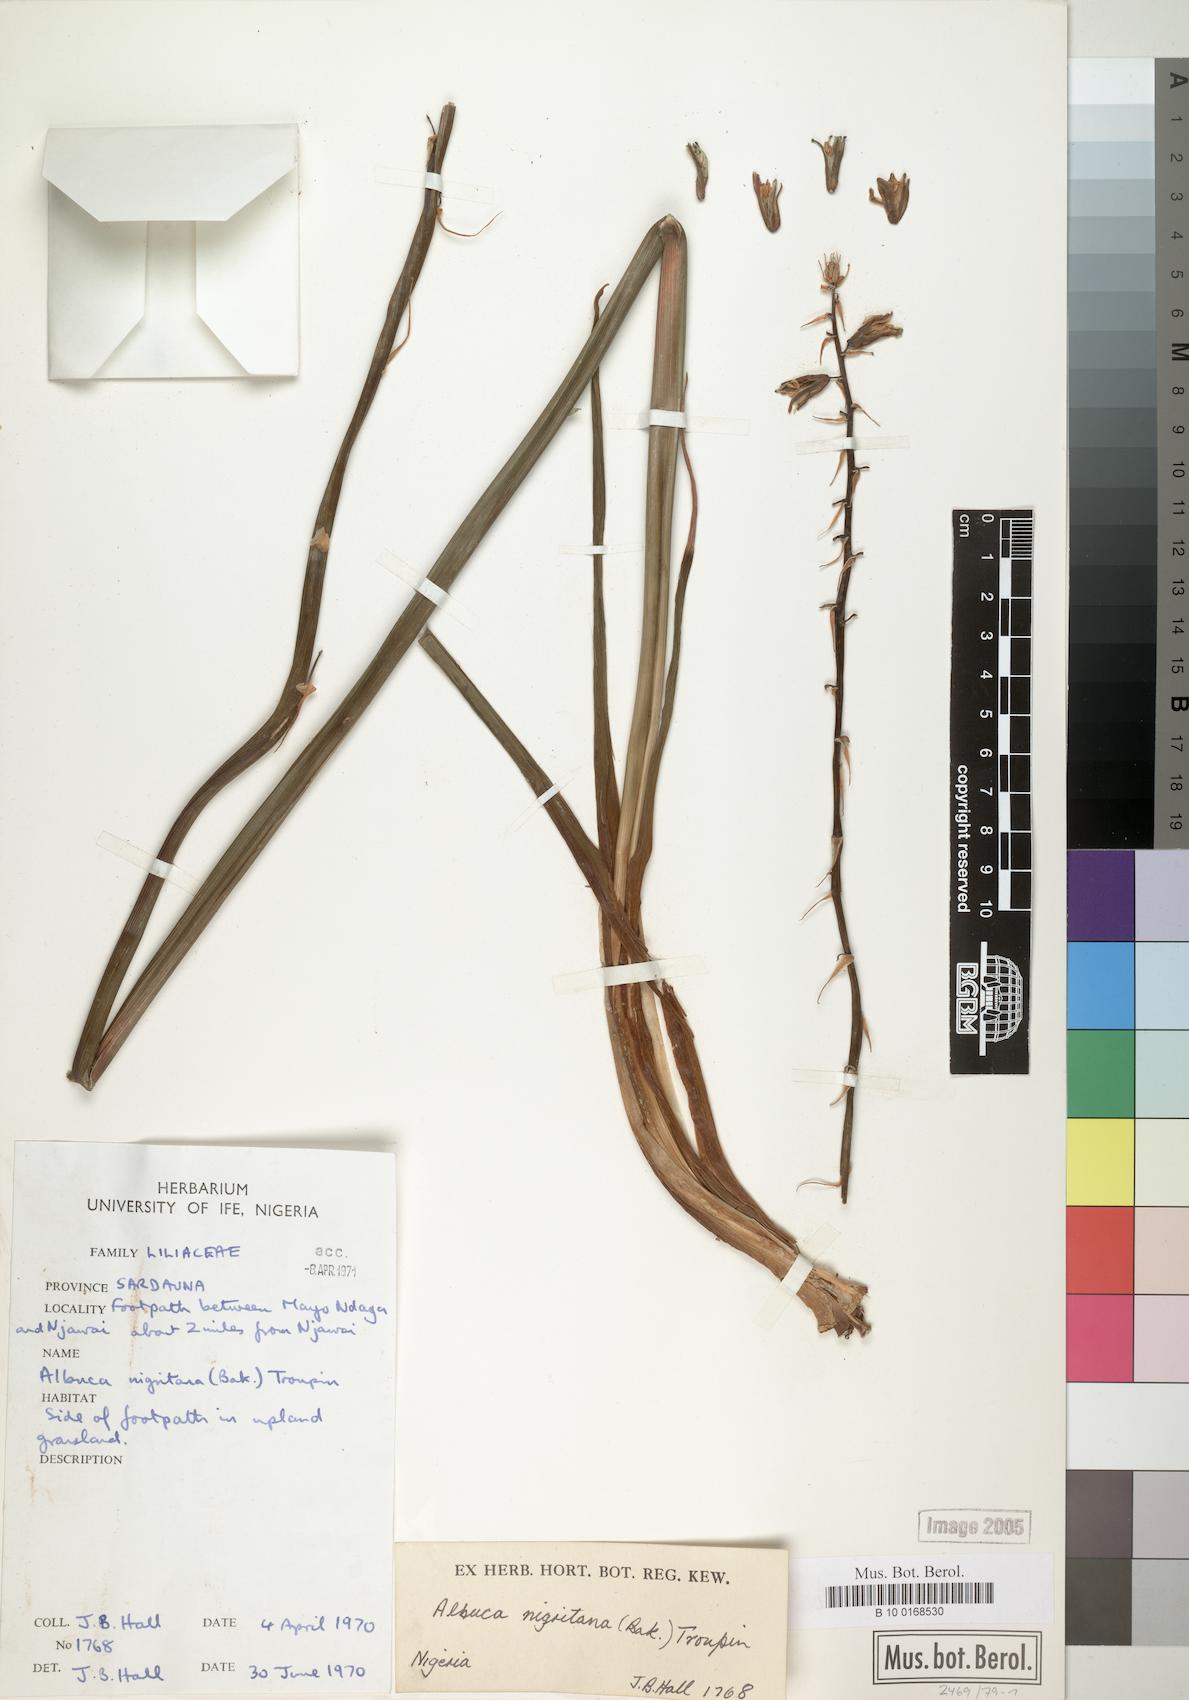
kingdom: Plantae
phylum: Tracheophyta
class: Liliopsida
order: Asparagales
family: Asparagaceae
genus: Albuca
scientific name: Albuca nigritana
